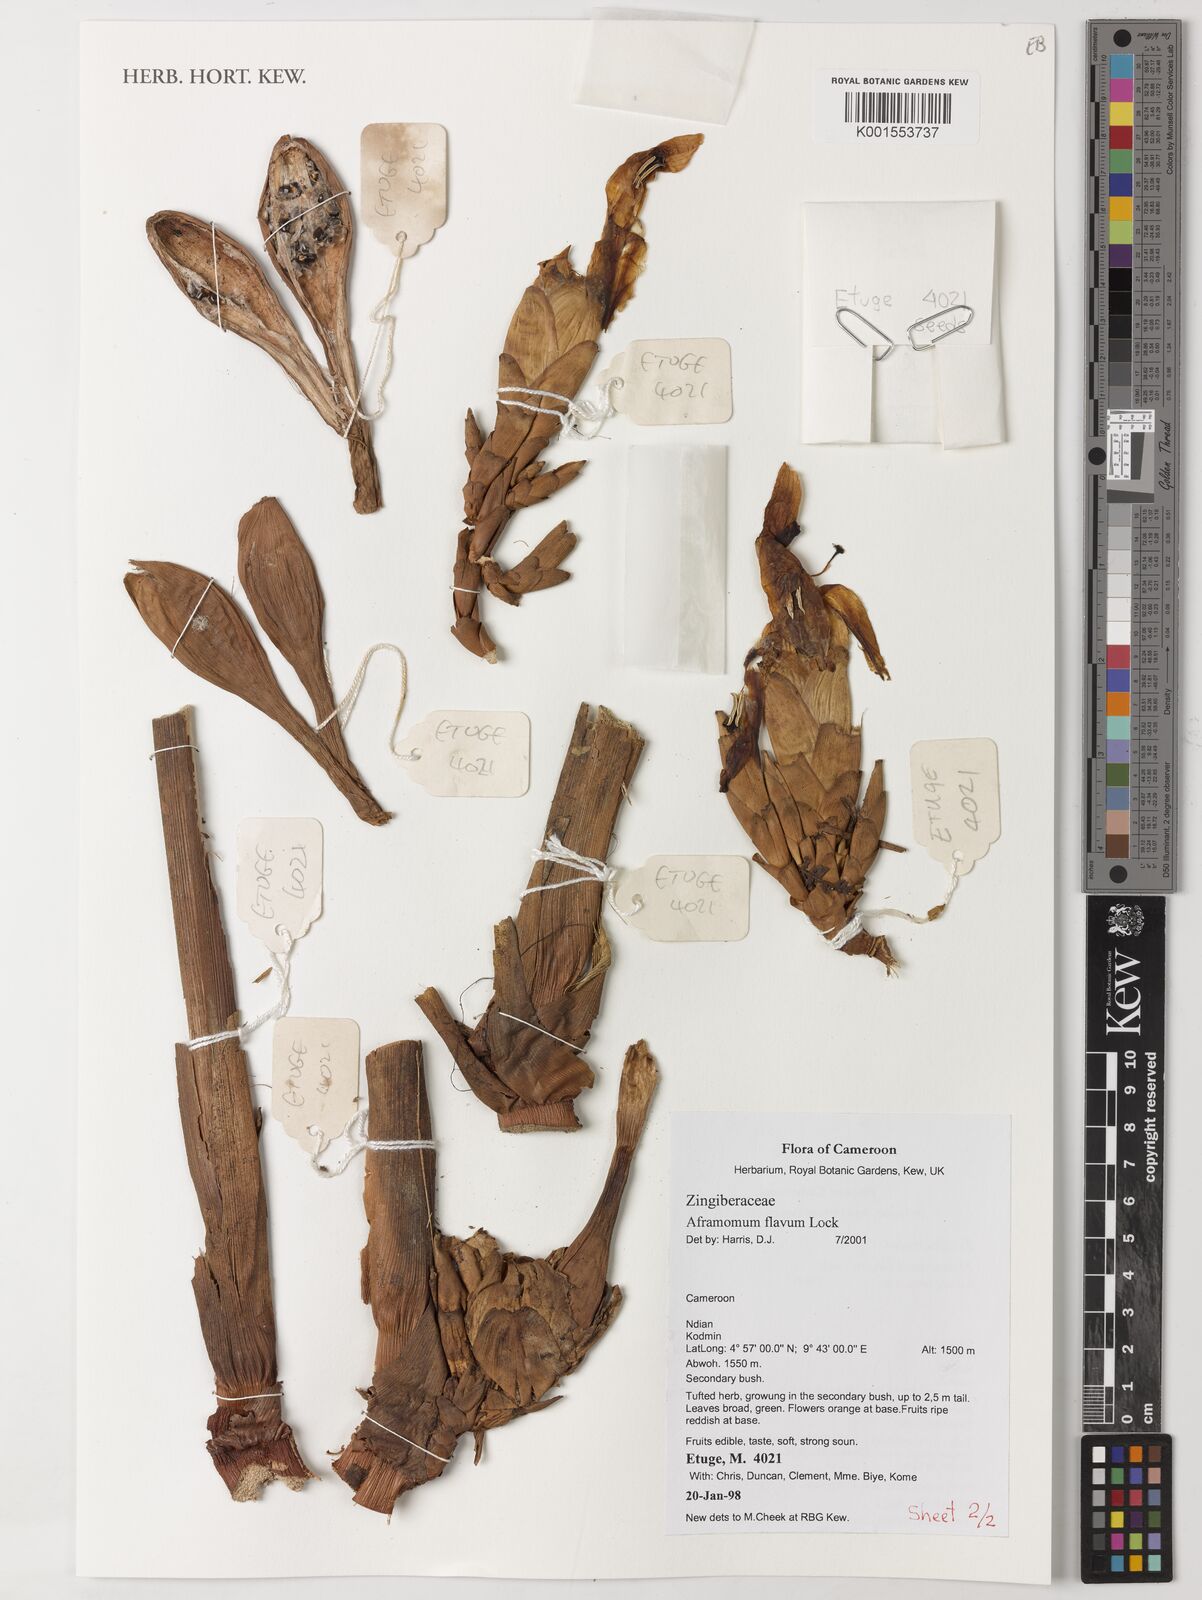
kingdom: Plantae
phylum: Tracheophyta
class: Liliopsida
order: Zingiberales
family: Zingiberaceae
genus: Aframomum
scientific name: Aframomum daniellii
